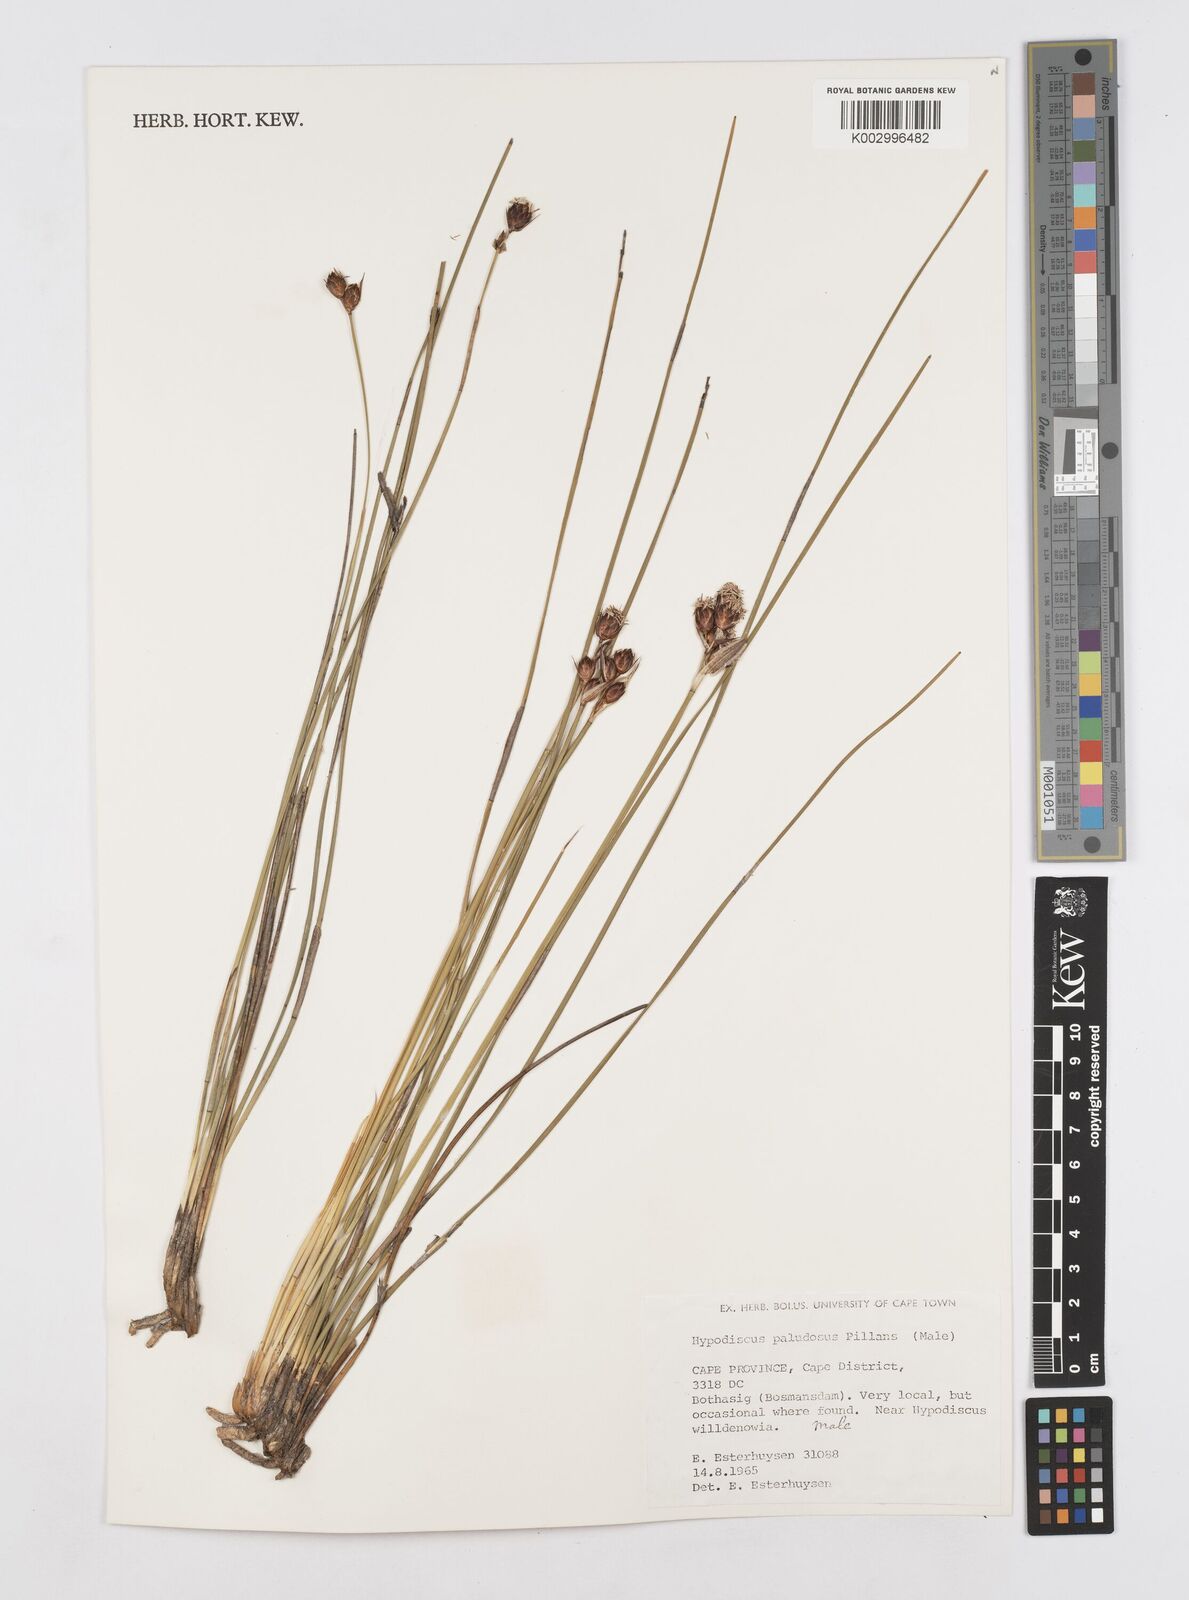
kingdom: Plantae
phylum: Tracheophyta
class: Liliopsida
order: Poales
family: Restionaceae
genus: Hypodiscus
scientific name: Hypodiscus rugosus
